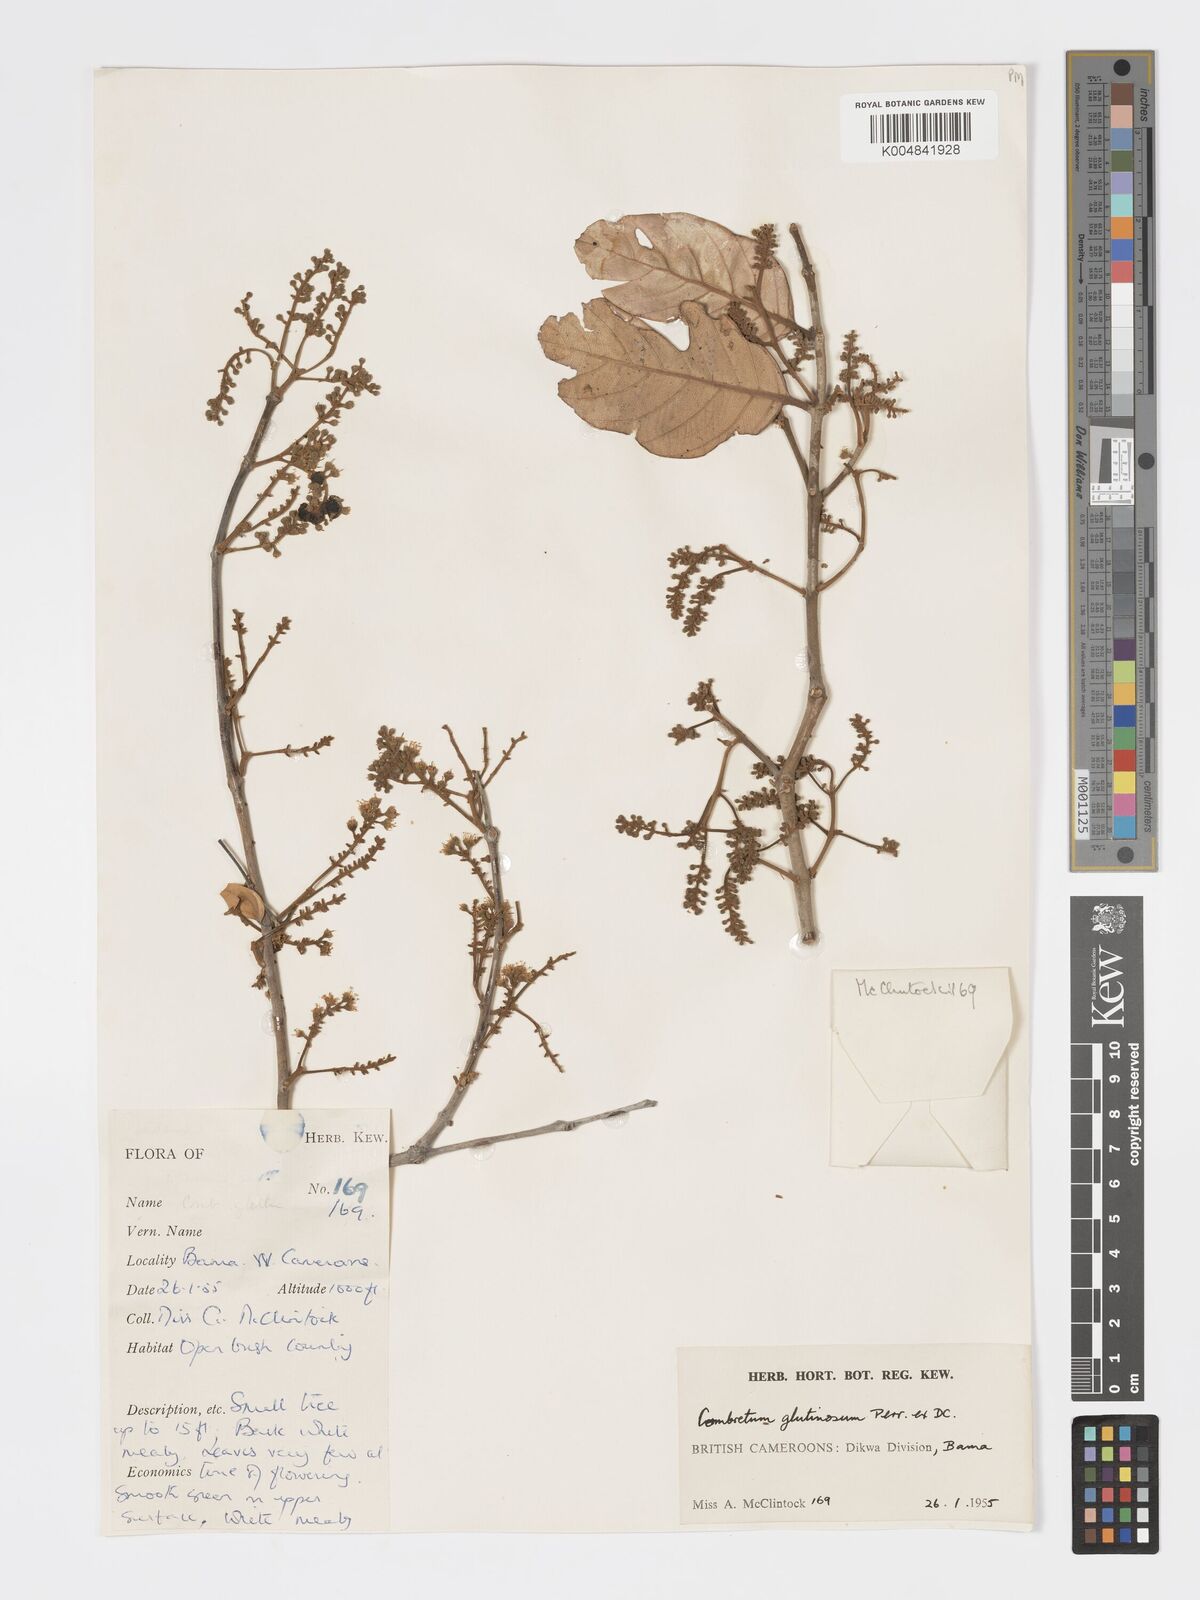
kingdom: Plantae
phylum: Tracheophyta
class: Magnoliopsida
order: Myrtales
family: Combretaceae
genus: Combretum
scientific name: Combretum
